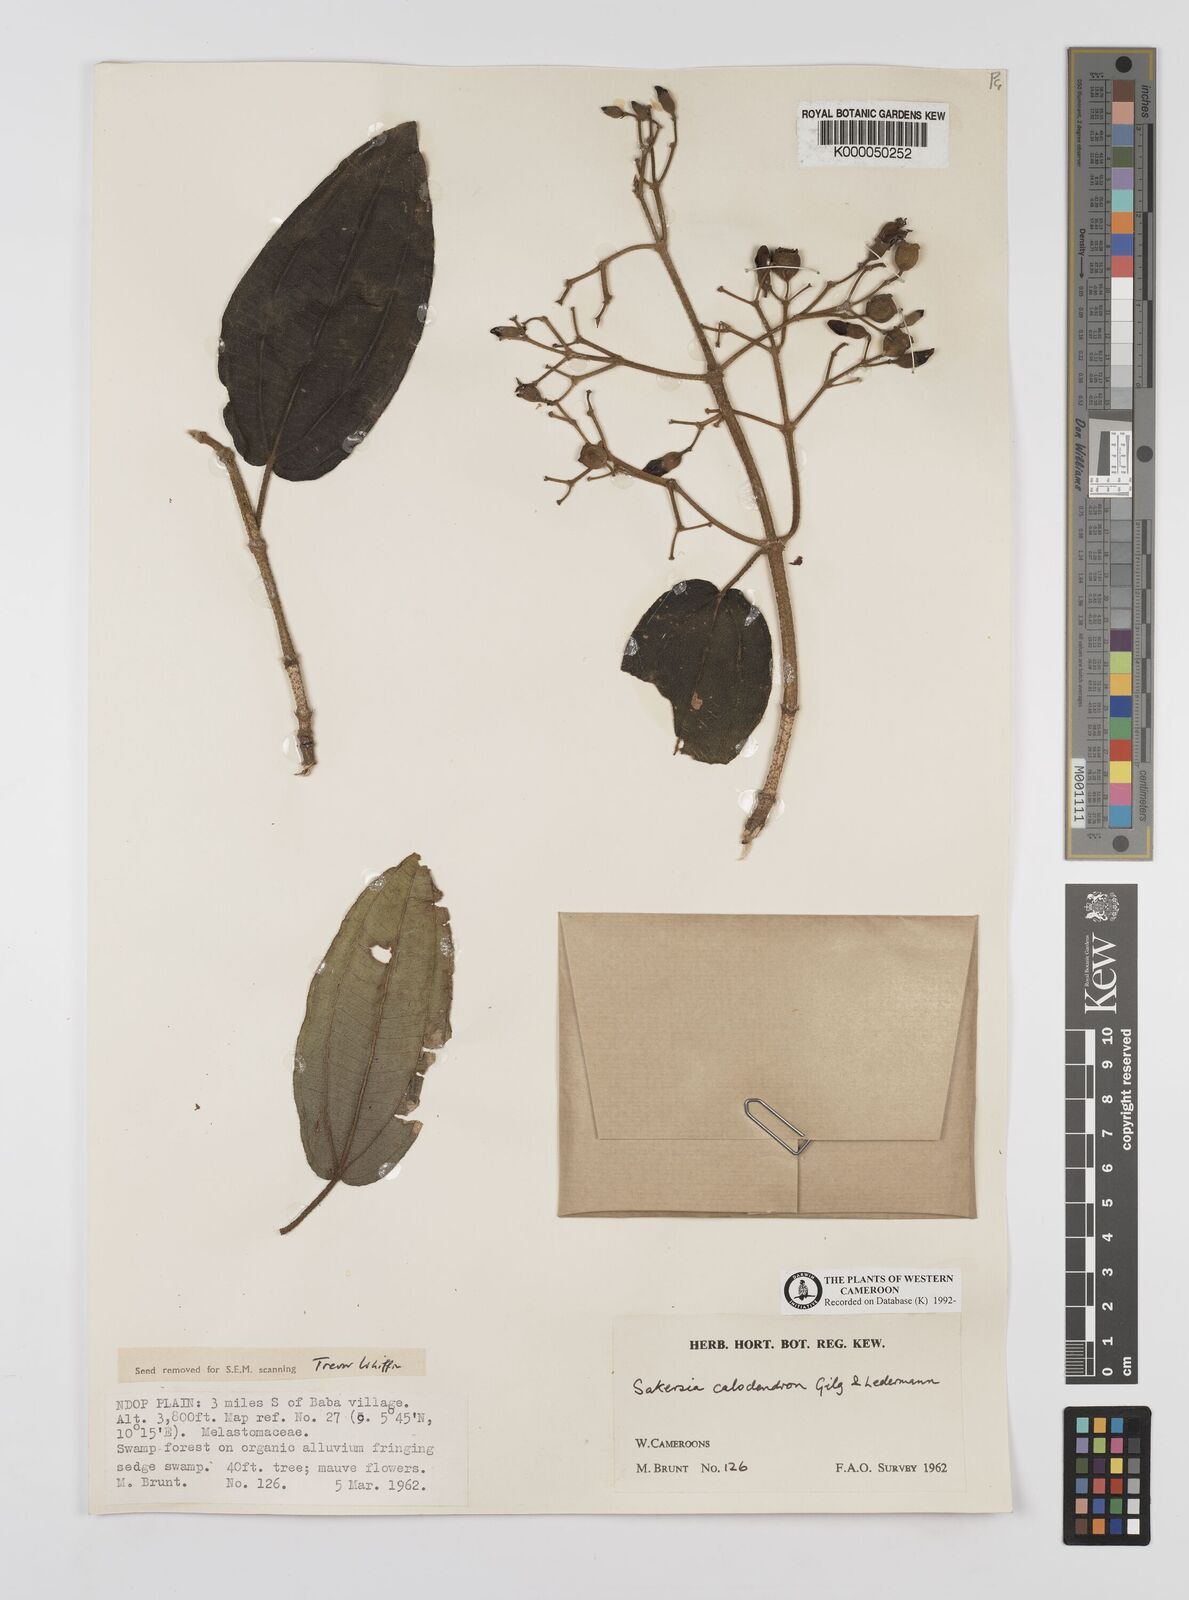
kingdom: Plantae
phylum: Tracheophyta
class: Magnoliopsida
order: Myrtales
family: Melastomataceae
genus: Dichaetanthera
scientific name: Dichaetanthera
